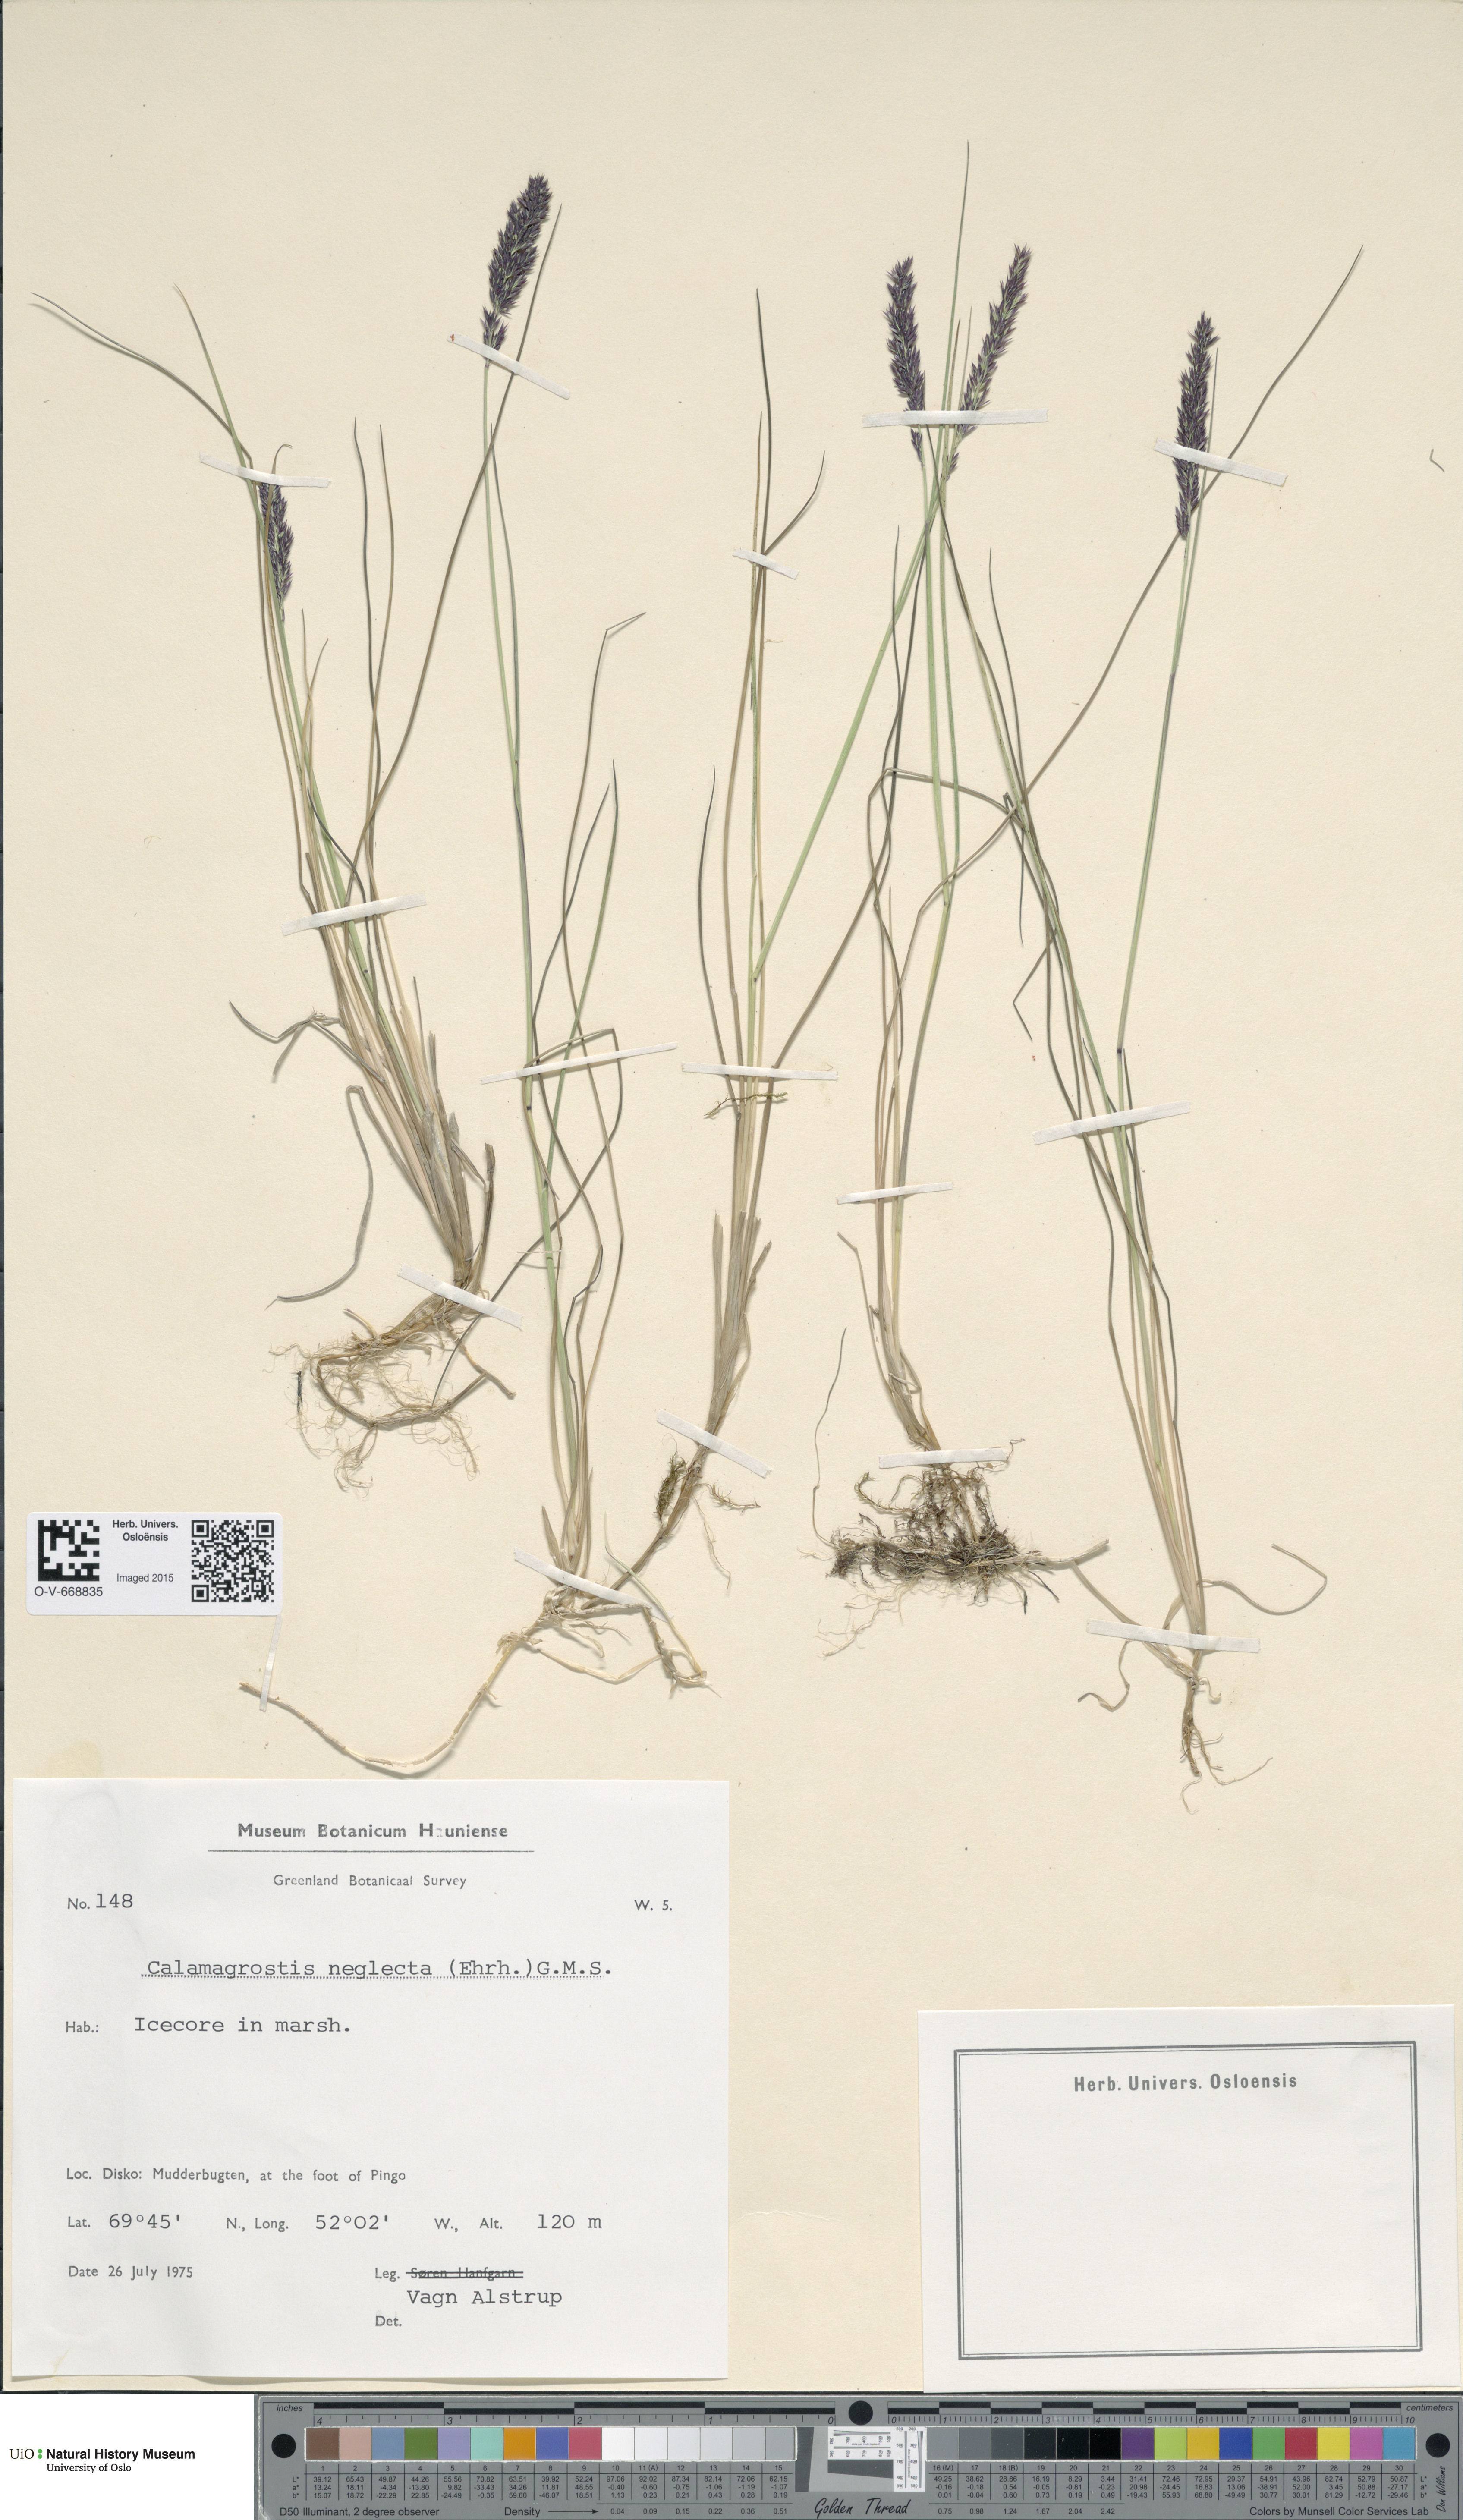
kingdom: Plantae
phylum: Tracheophyta
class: Liliopsida
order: Poales
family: Poaceae
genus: Achnatherum
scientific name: Achnatherum calamagrostis
